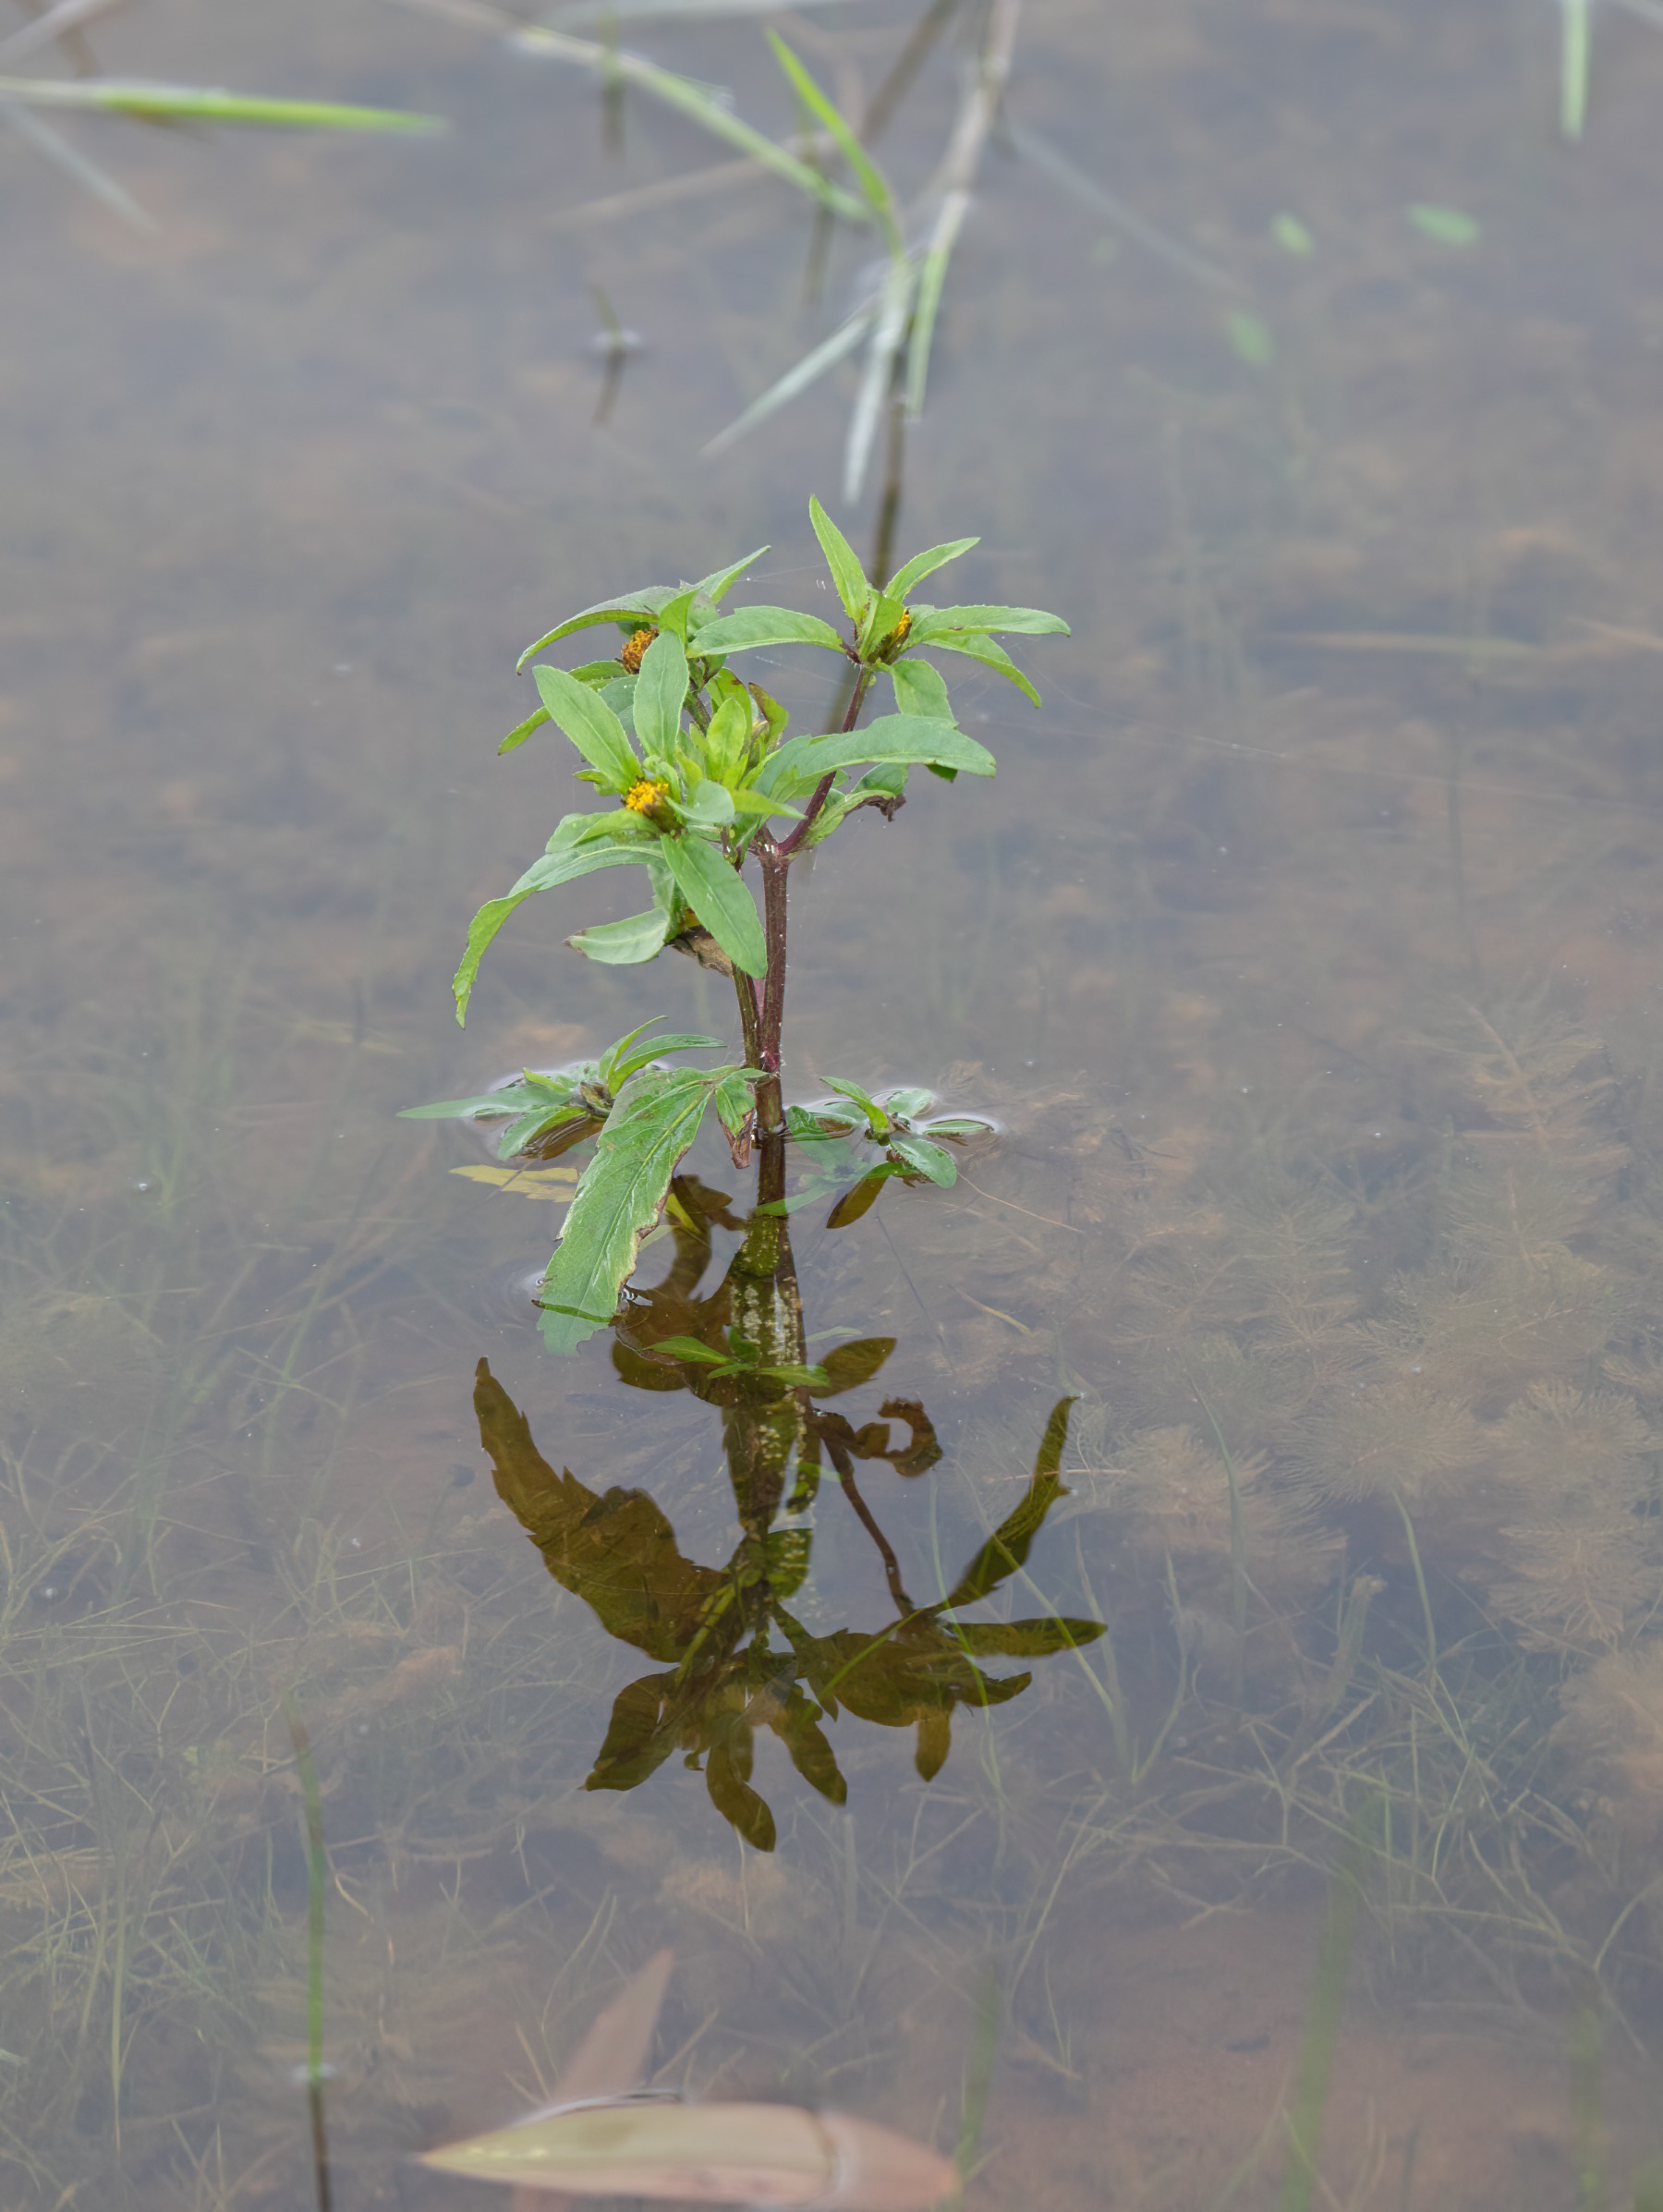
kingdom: Plantae
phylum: Tracheophyta
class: Magnoliopsida
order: Asterales
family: Asteraceae
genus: Bidens
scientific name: Bidens tripartita
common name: Fliget brøndsel
